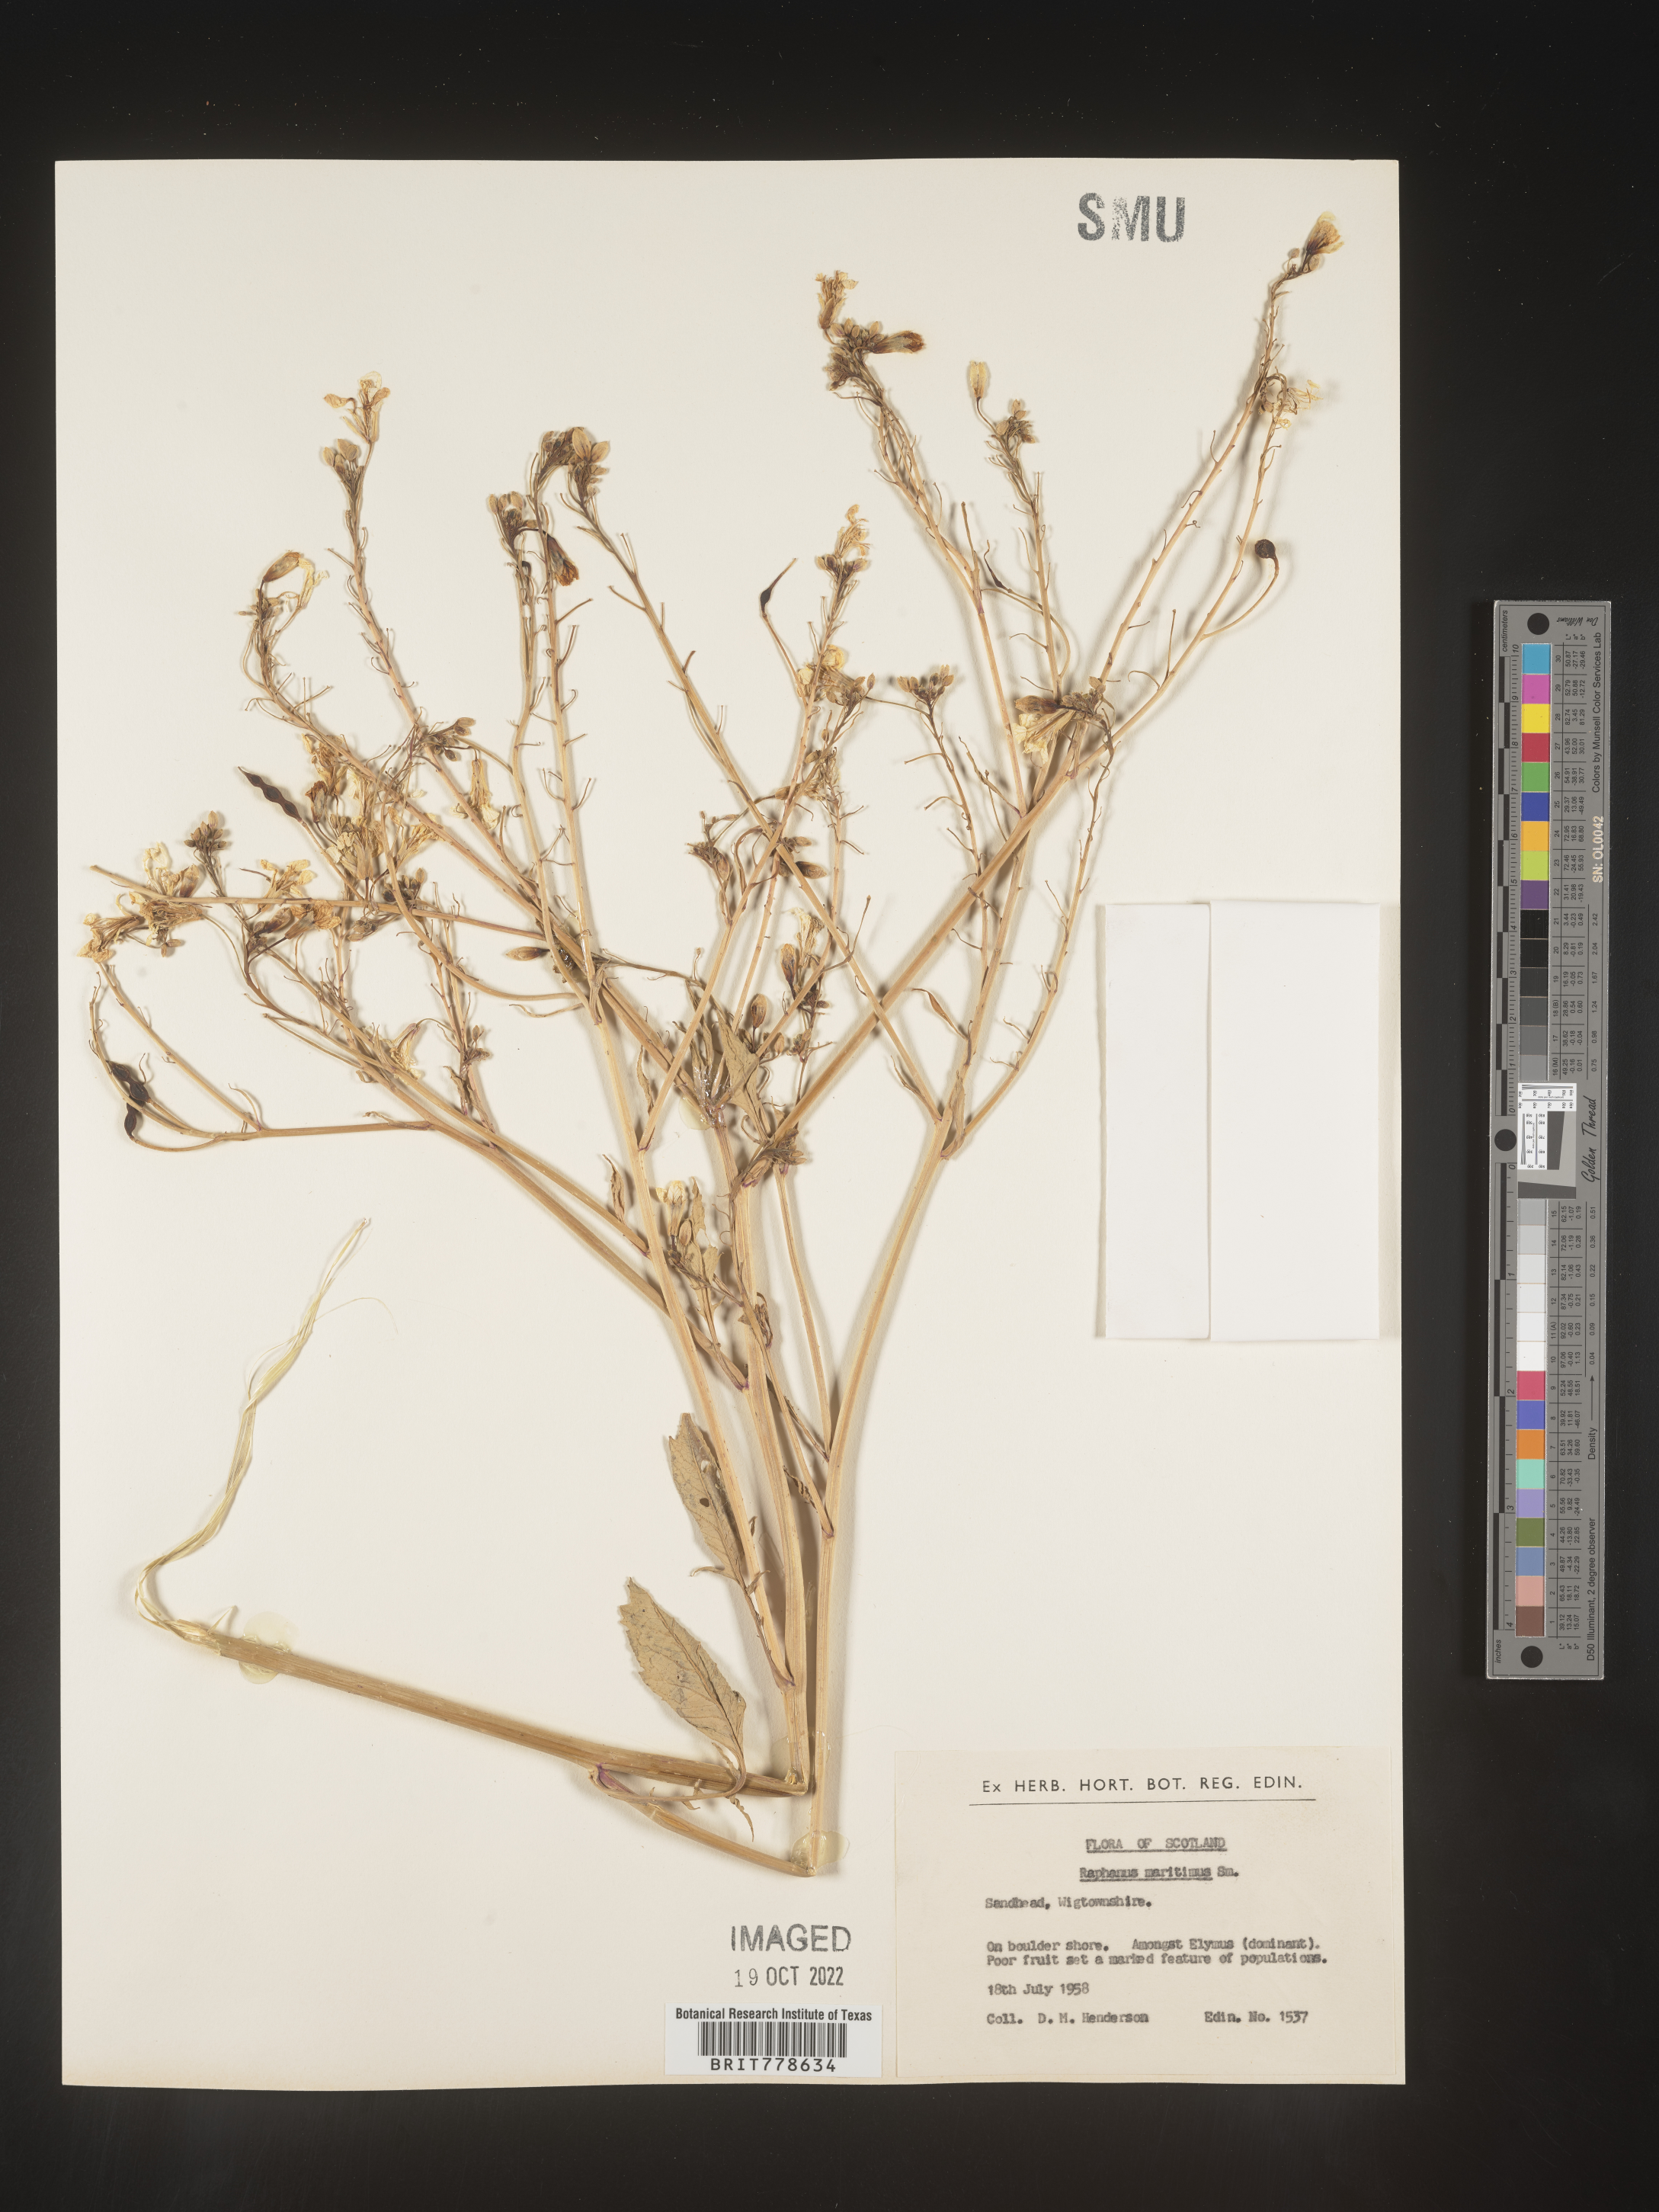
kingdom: Plantae
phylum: Tracheophyta
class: Magnoliopsida
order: Brassicales
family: Brassicaceae
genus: Raphanus
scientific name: Raphanus raphanistrum
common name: Wild radish
